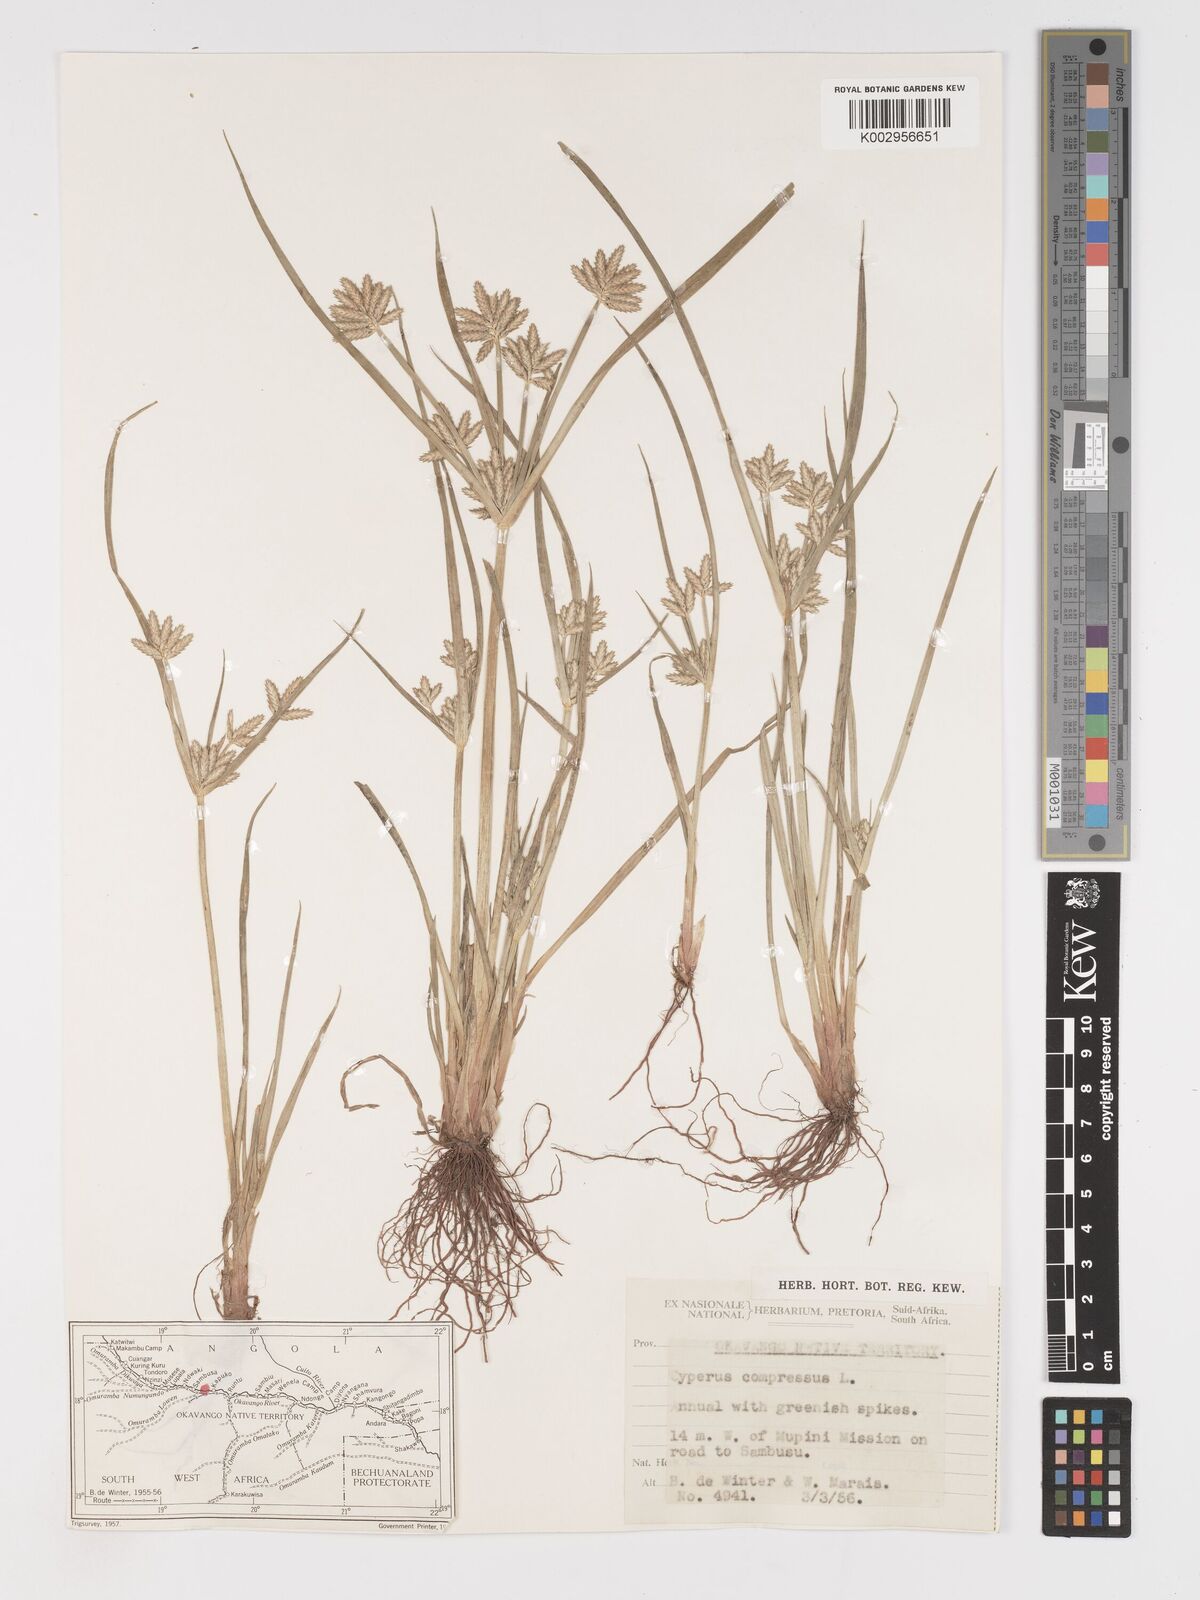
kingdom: Plantae
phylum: Tracheophyta
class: Liliopsida
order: Poales
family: Cyperaceae
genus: Cyperus
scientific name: Cyperus compressus
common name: Poorland flatsedge
